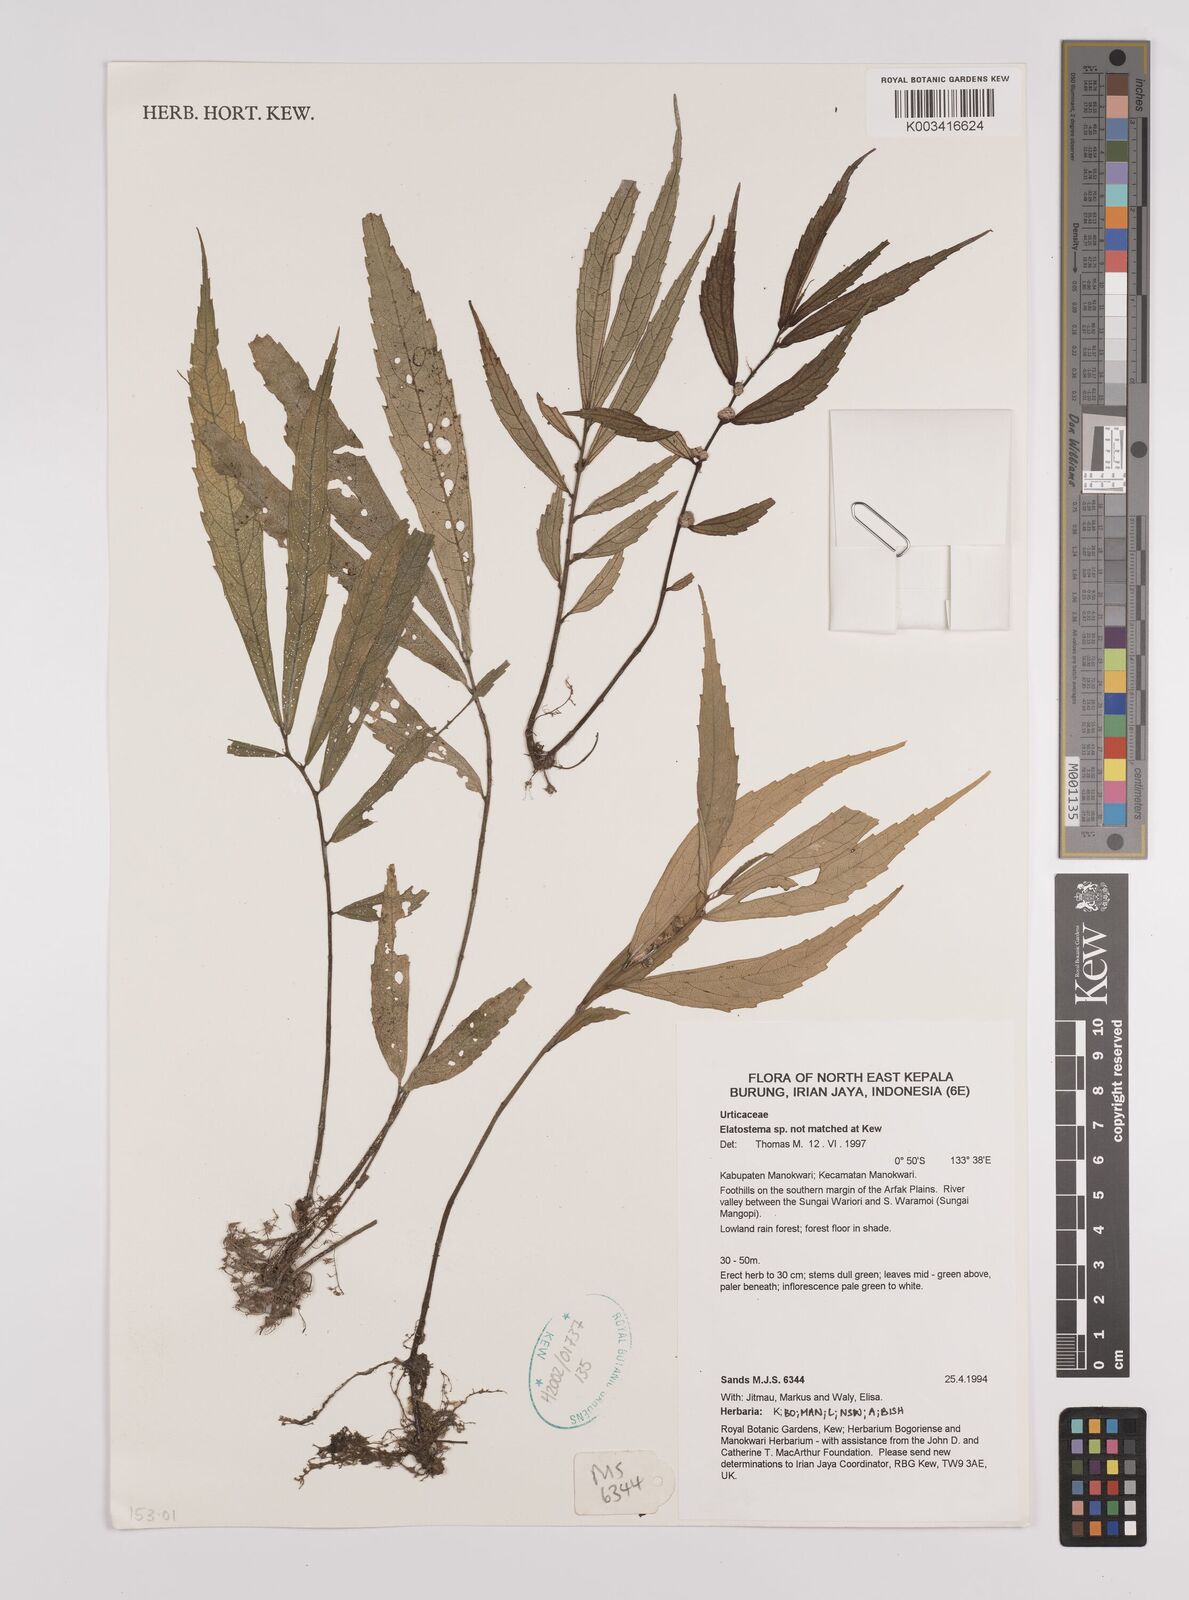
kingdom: Plantae
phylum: Tracheophyta
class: Magnoliopsida
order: Rosales
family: Urticaceae
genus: Elatostema
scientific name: Elatostema
